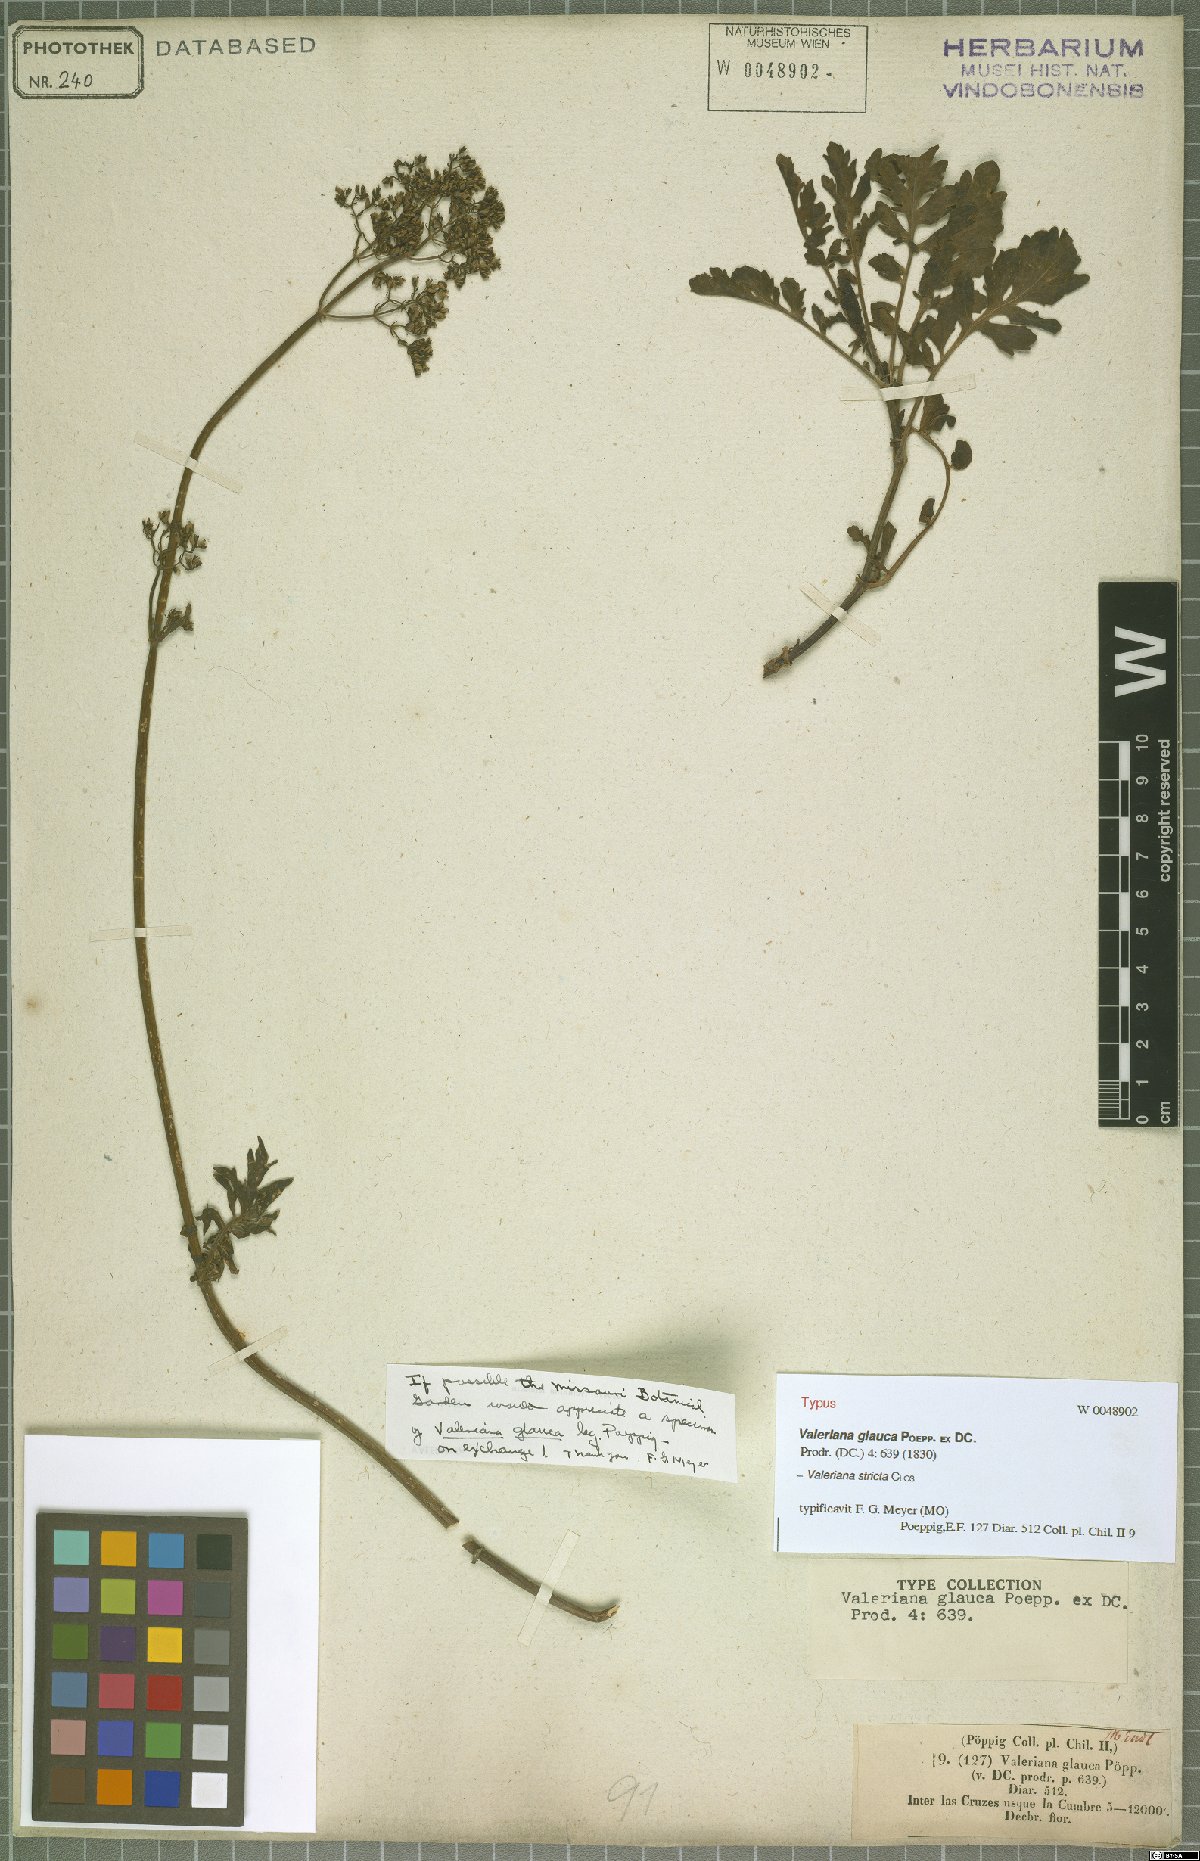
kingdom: Plantae
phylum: Tracheophyta
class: Magnoliopsida
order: Dipsacales
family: Caprifoliaceae
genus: Valeriana
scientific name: Valeriana stricta
